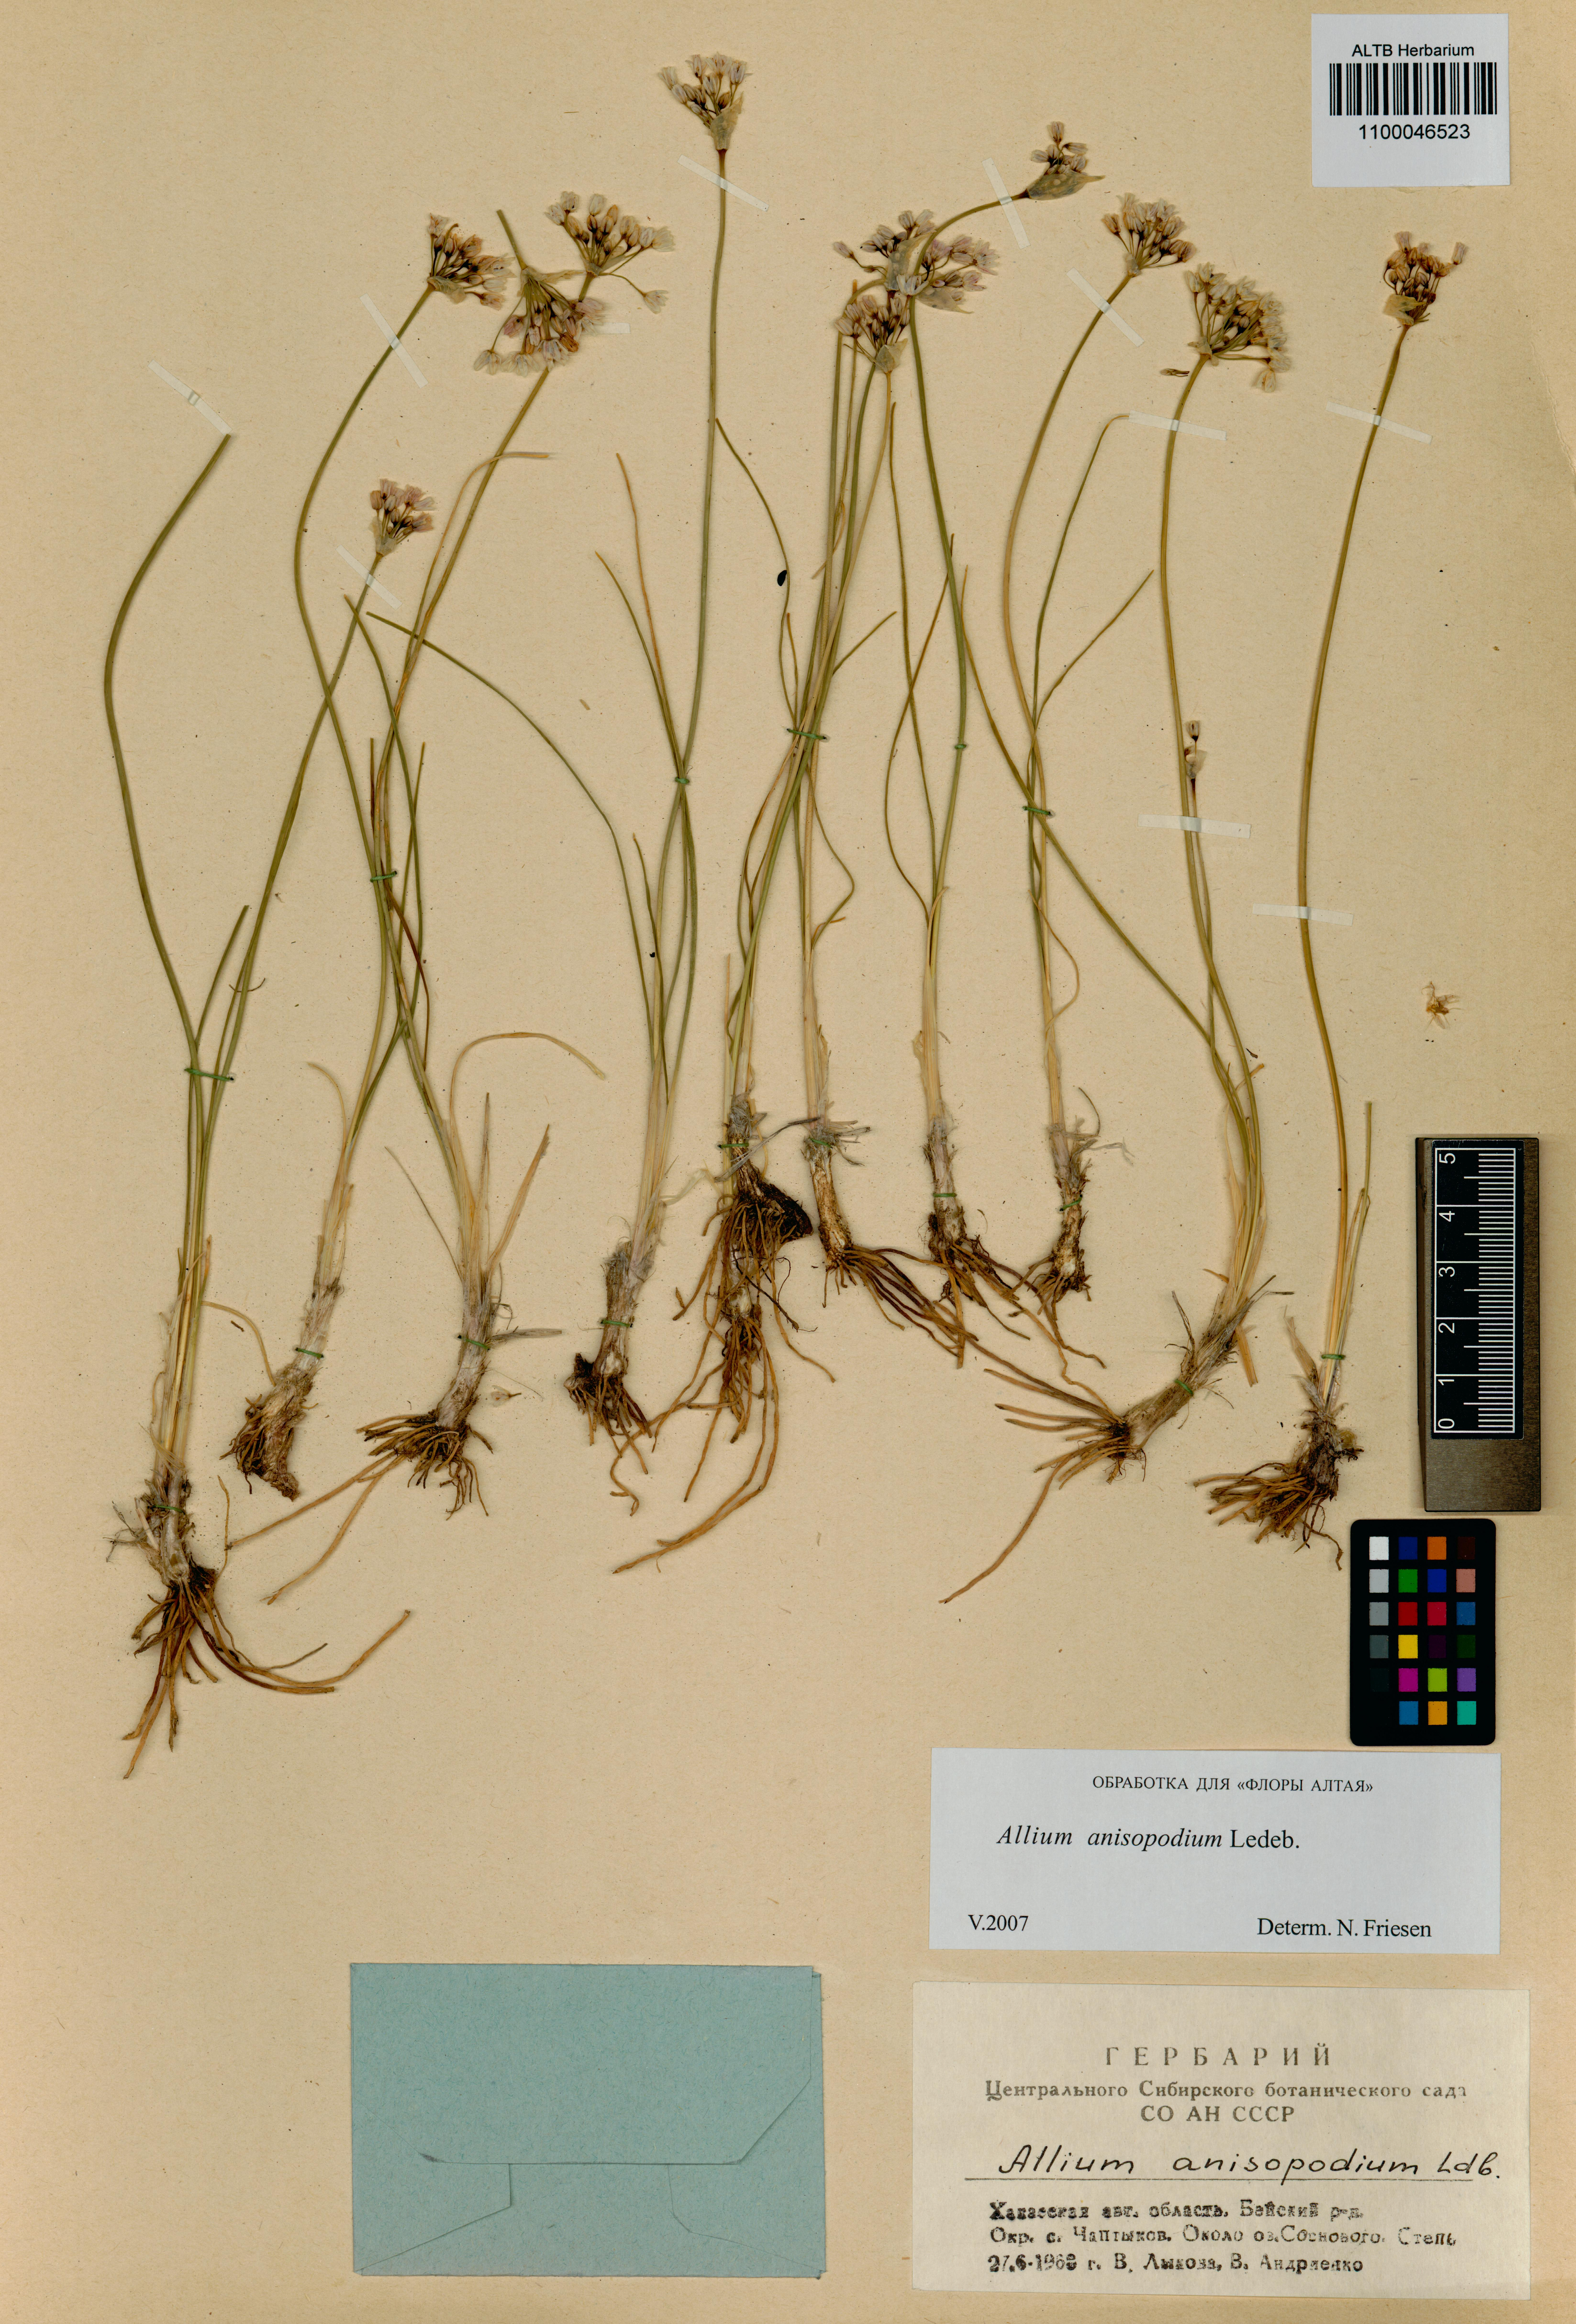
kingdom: Plantae
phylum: Tracheophyta
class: Liliopsida
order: Asparagales
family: Amaryllidaceae
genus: Allium
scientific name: Allium anisopodium
